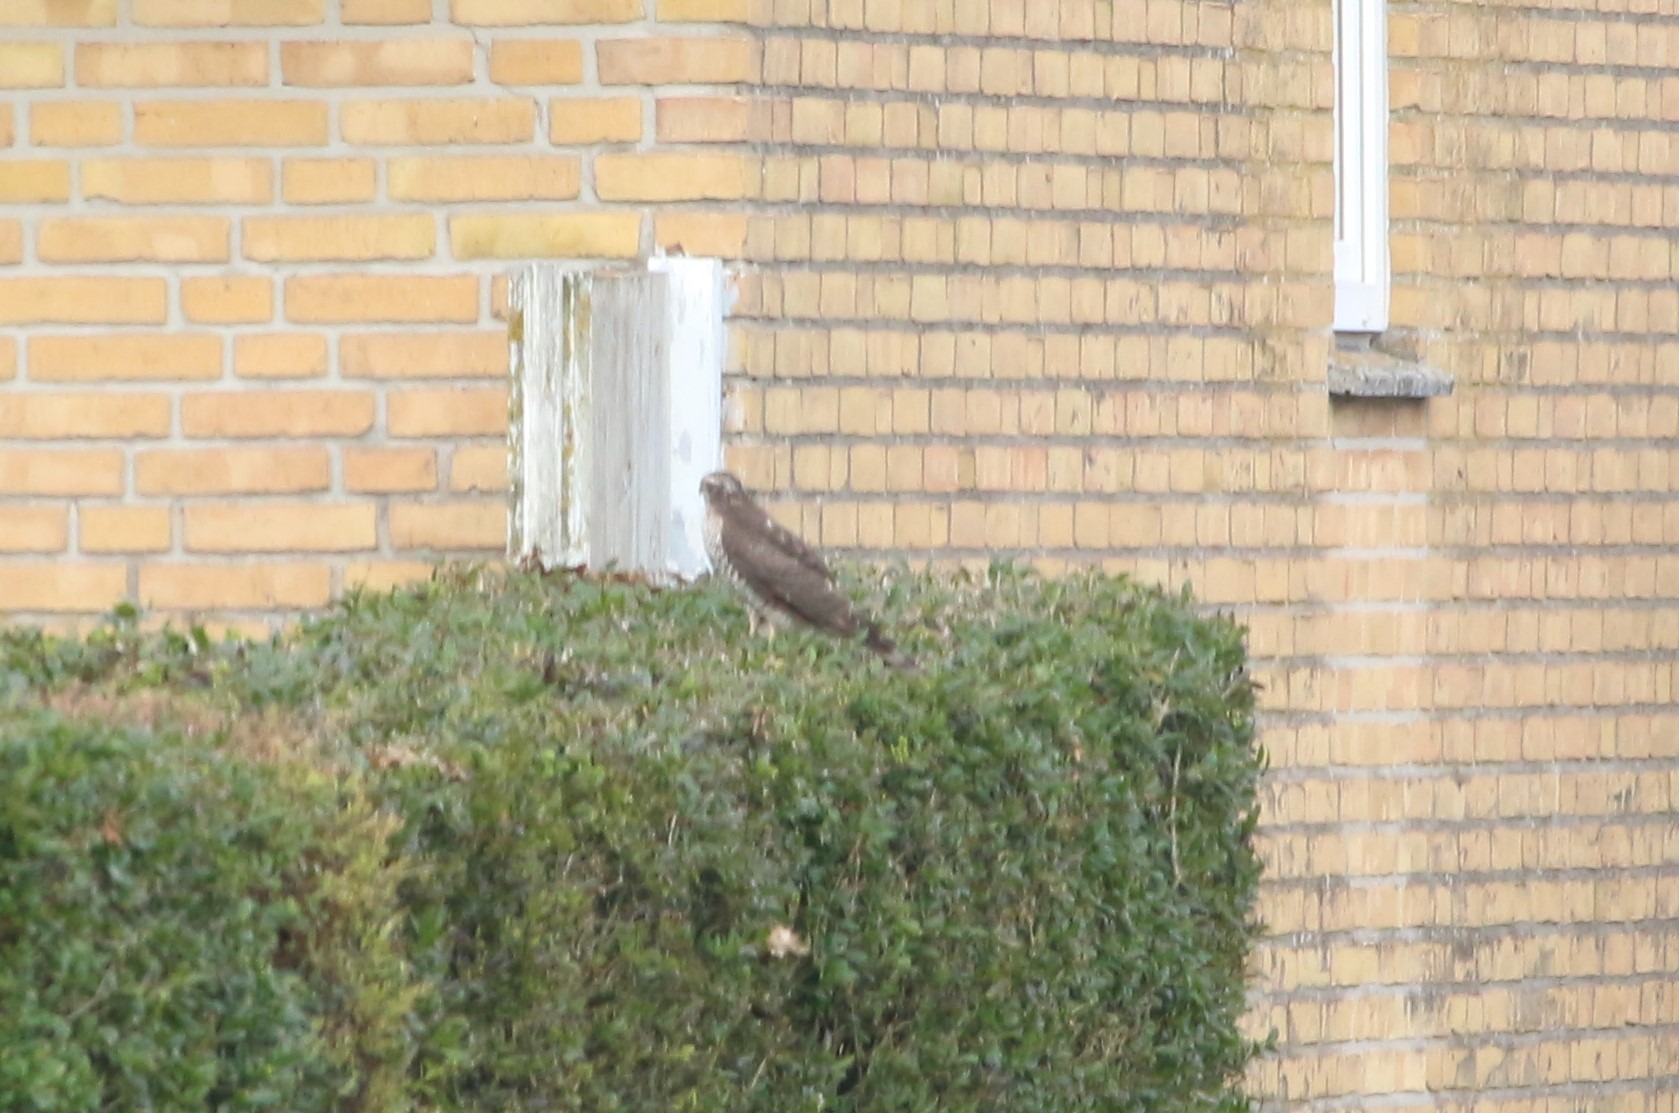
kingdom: Animalia
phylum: Chordata
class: Aves
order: Accipitriformes
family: Accipitridae
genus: Accipiter
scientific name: Accipiter nisus
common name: Spurvehøg
